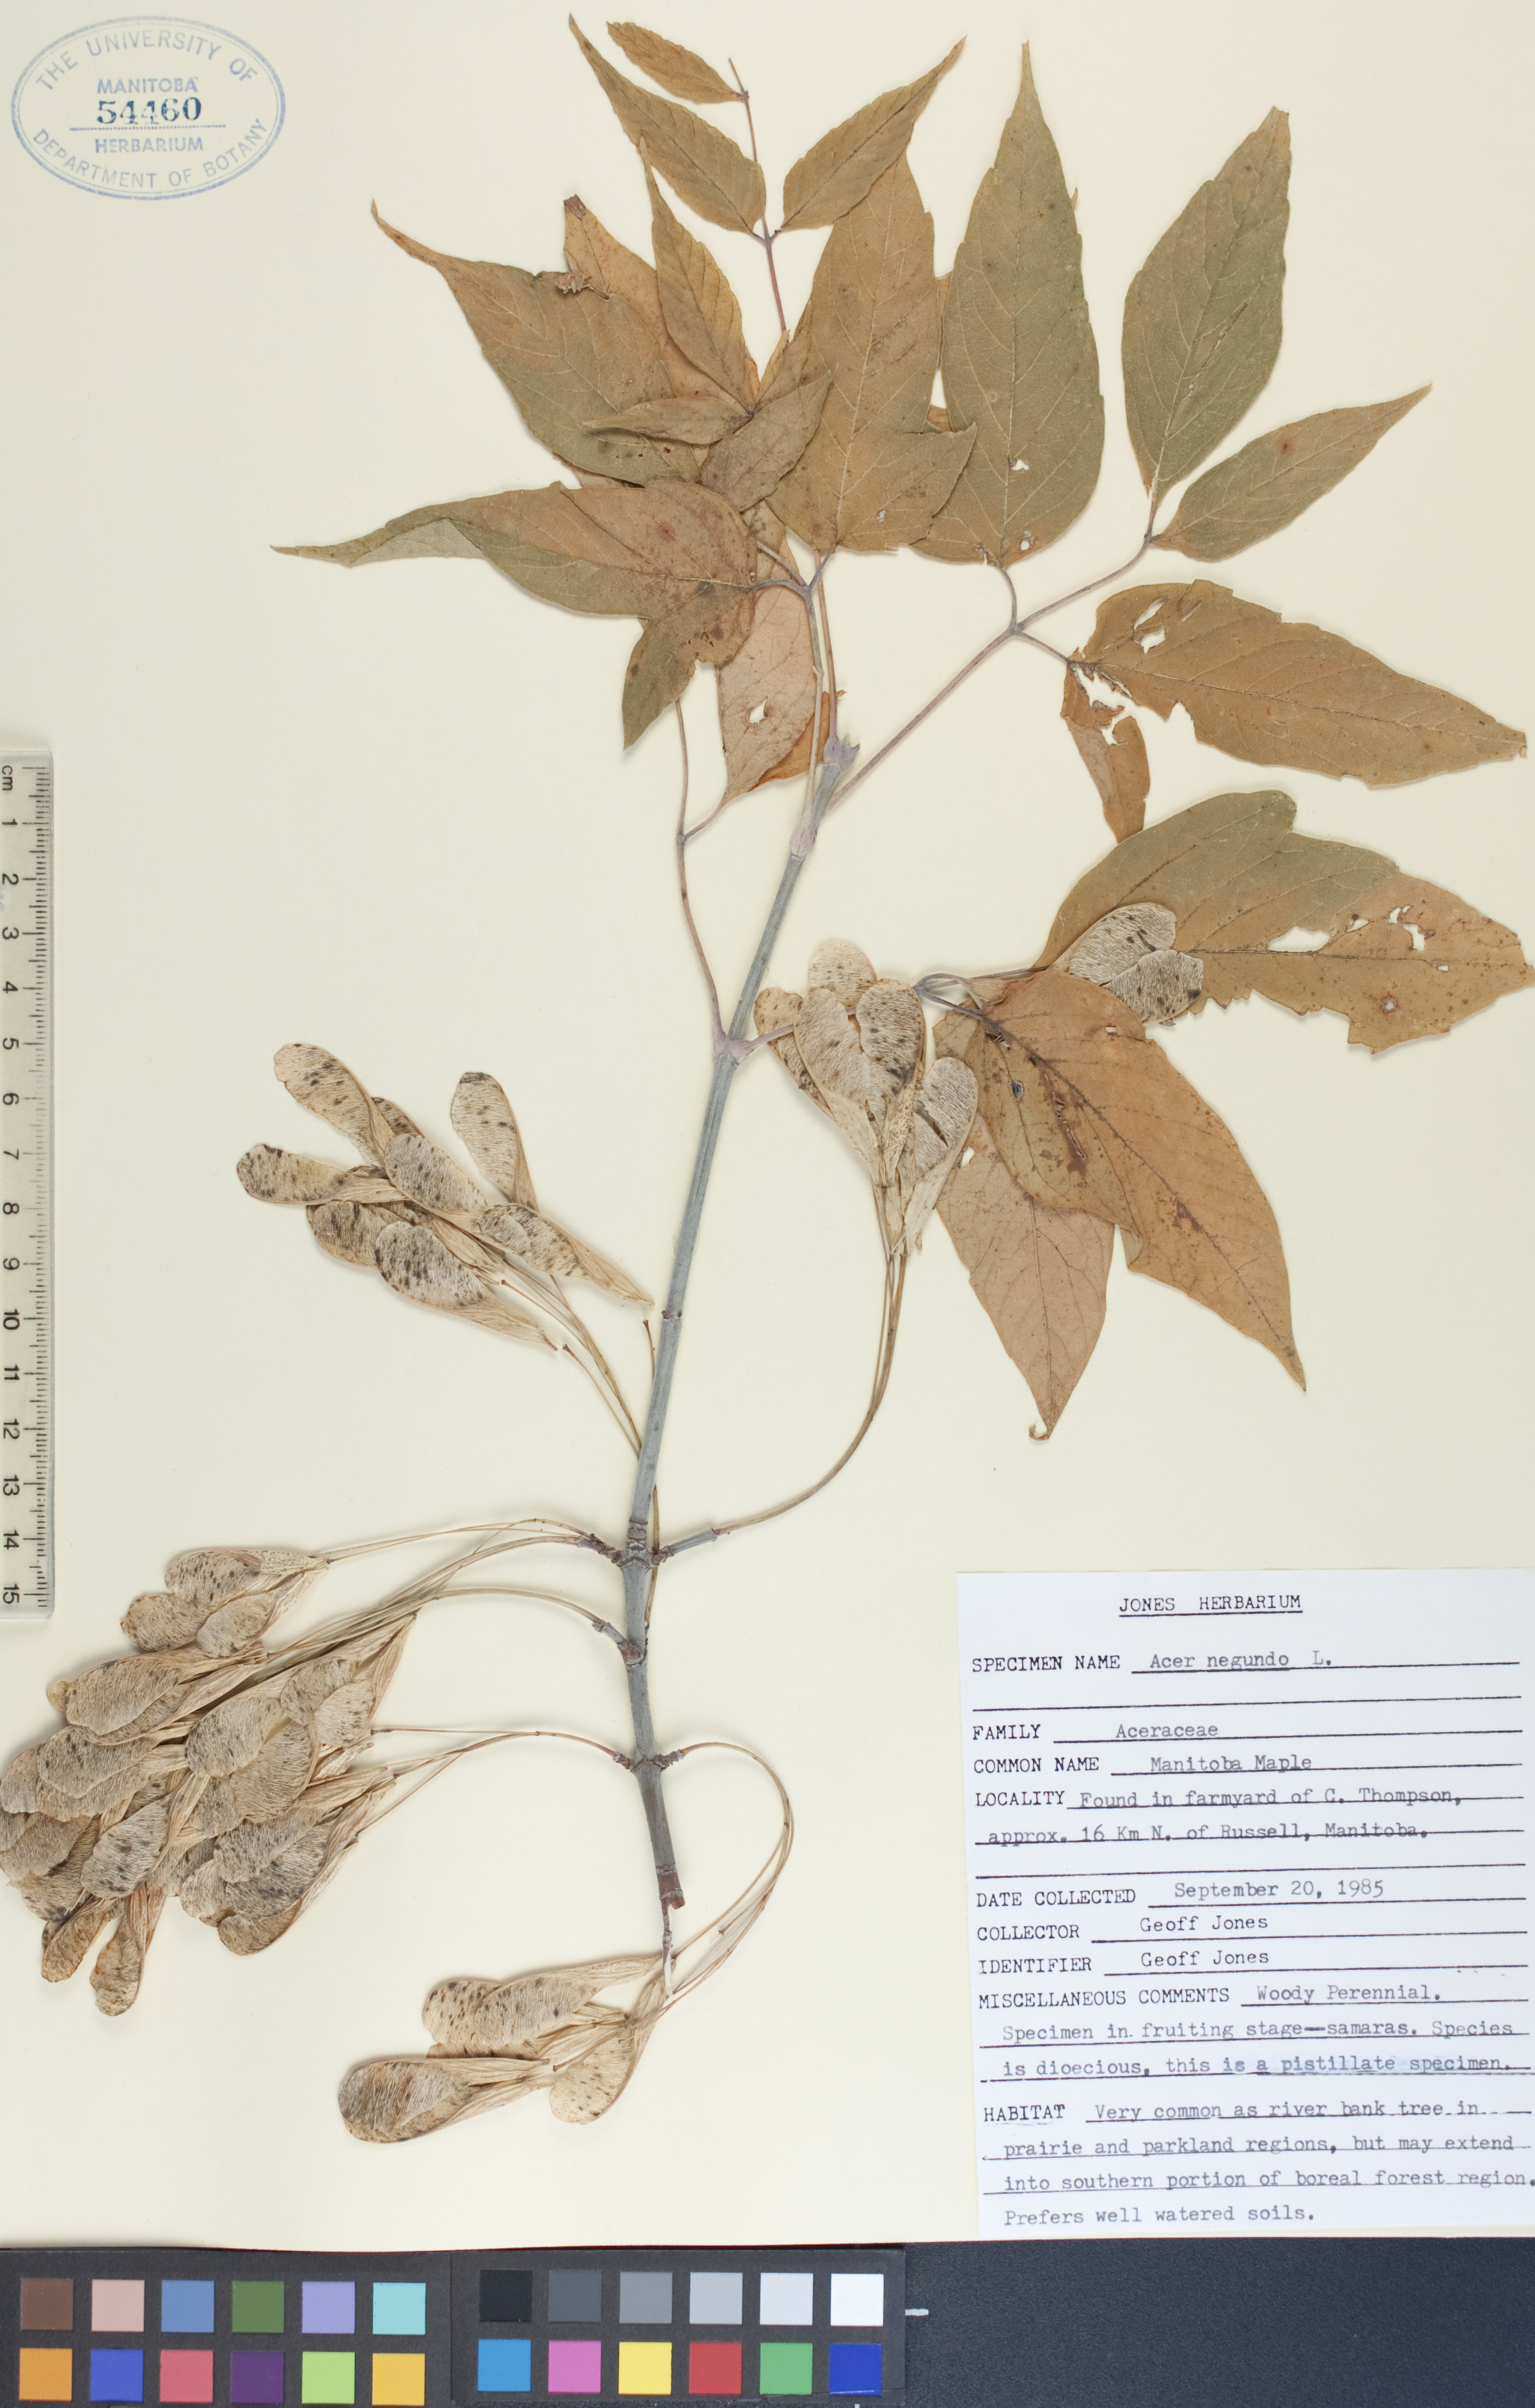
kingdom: Plantae
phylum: Tracheophyta
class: Magnoliopsida
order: Sapindales
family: Sapindaceae
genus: Acer
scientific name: Acer negundo
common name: Ashleaf maple
